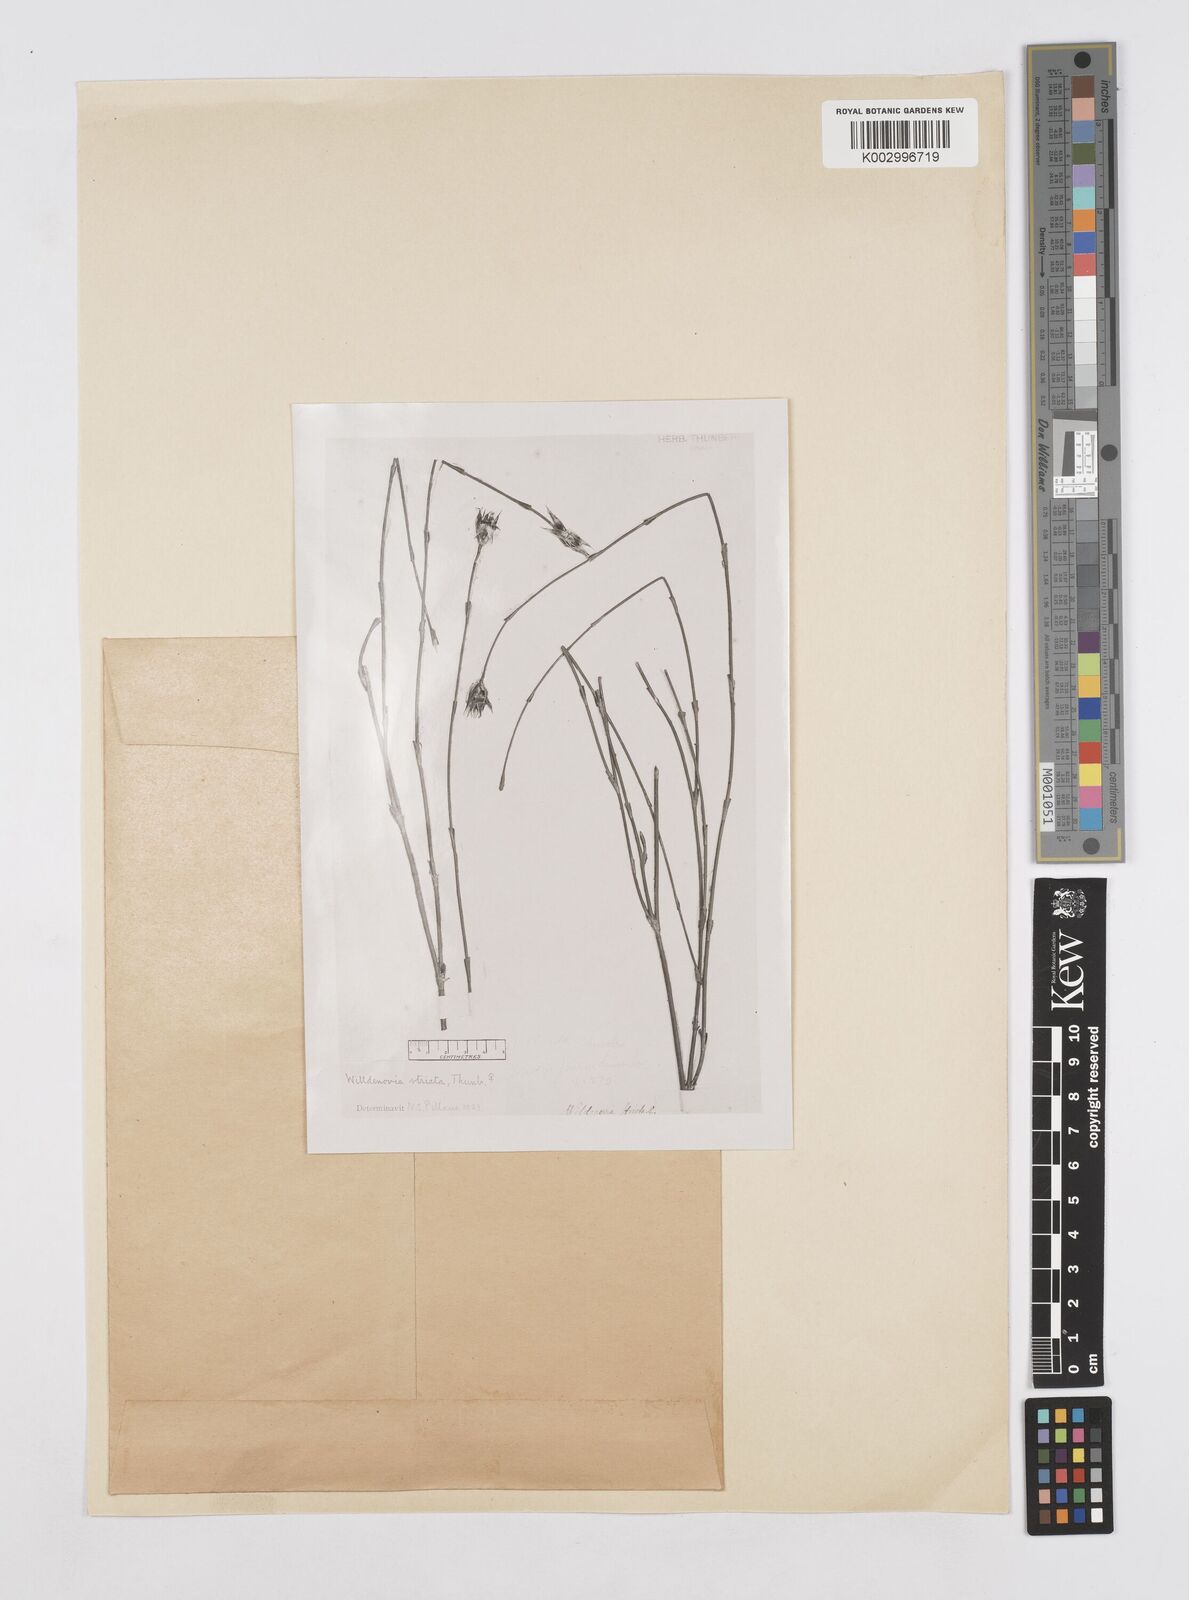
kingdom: Plantae
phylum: Tracheophyta
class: Liliopsida
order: Poales
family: Restionaceae
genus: Willdenowia
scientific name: Willdenowia incurvata
